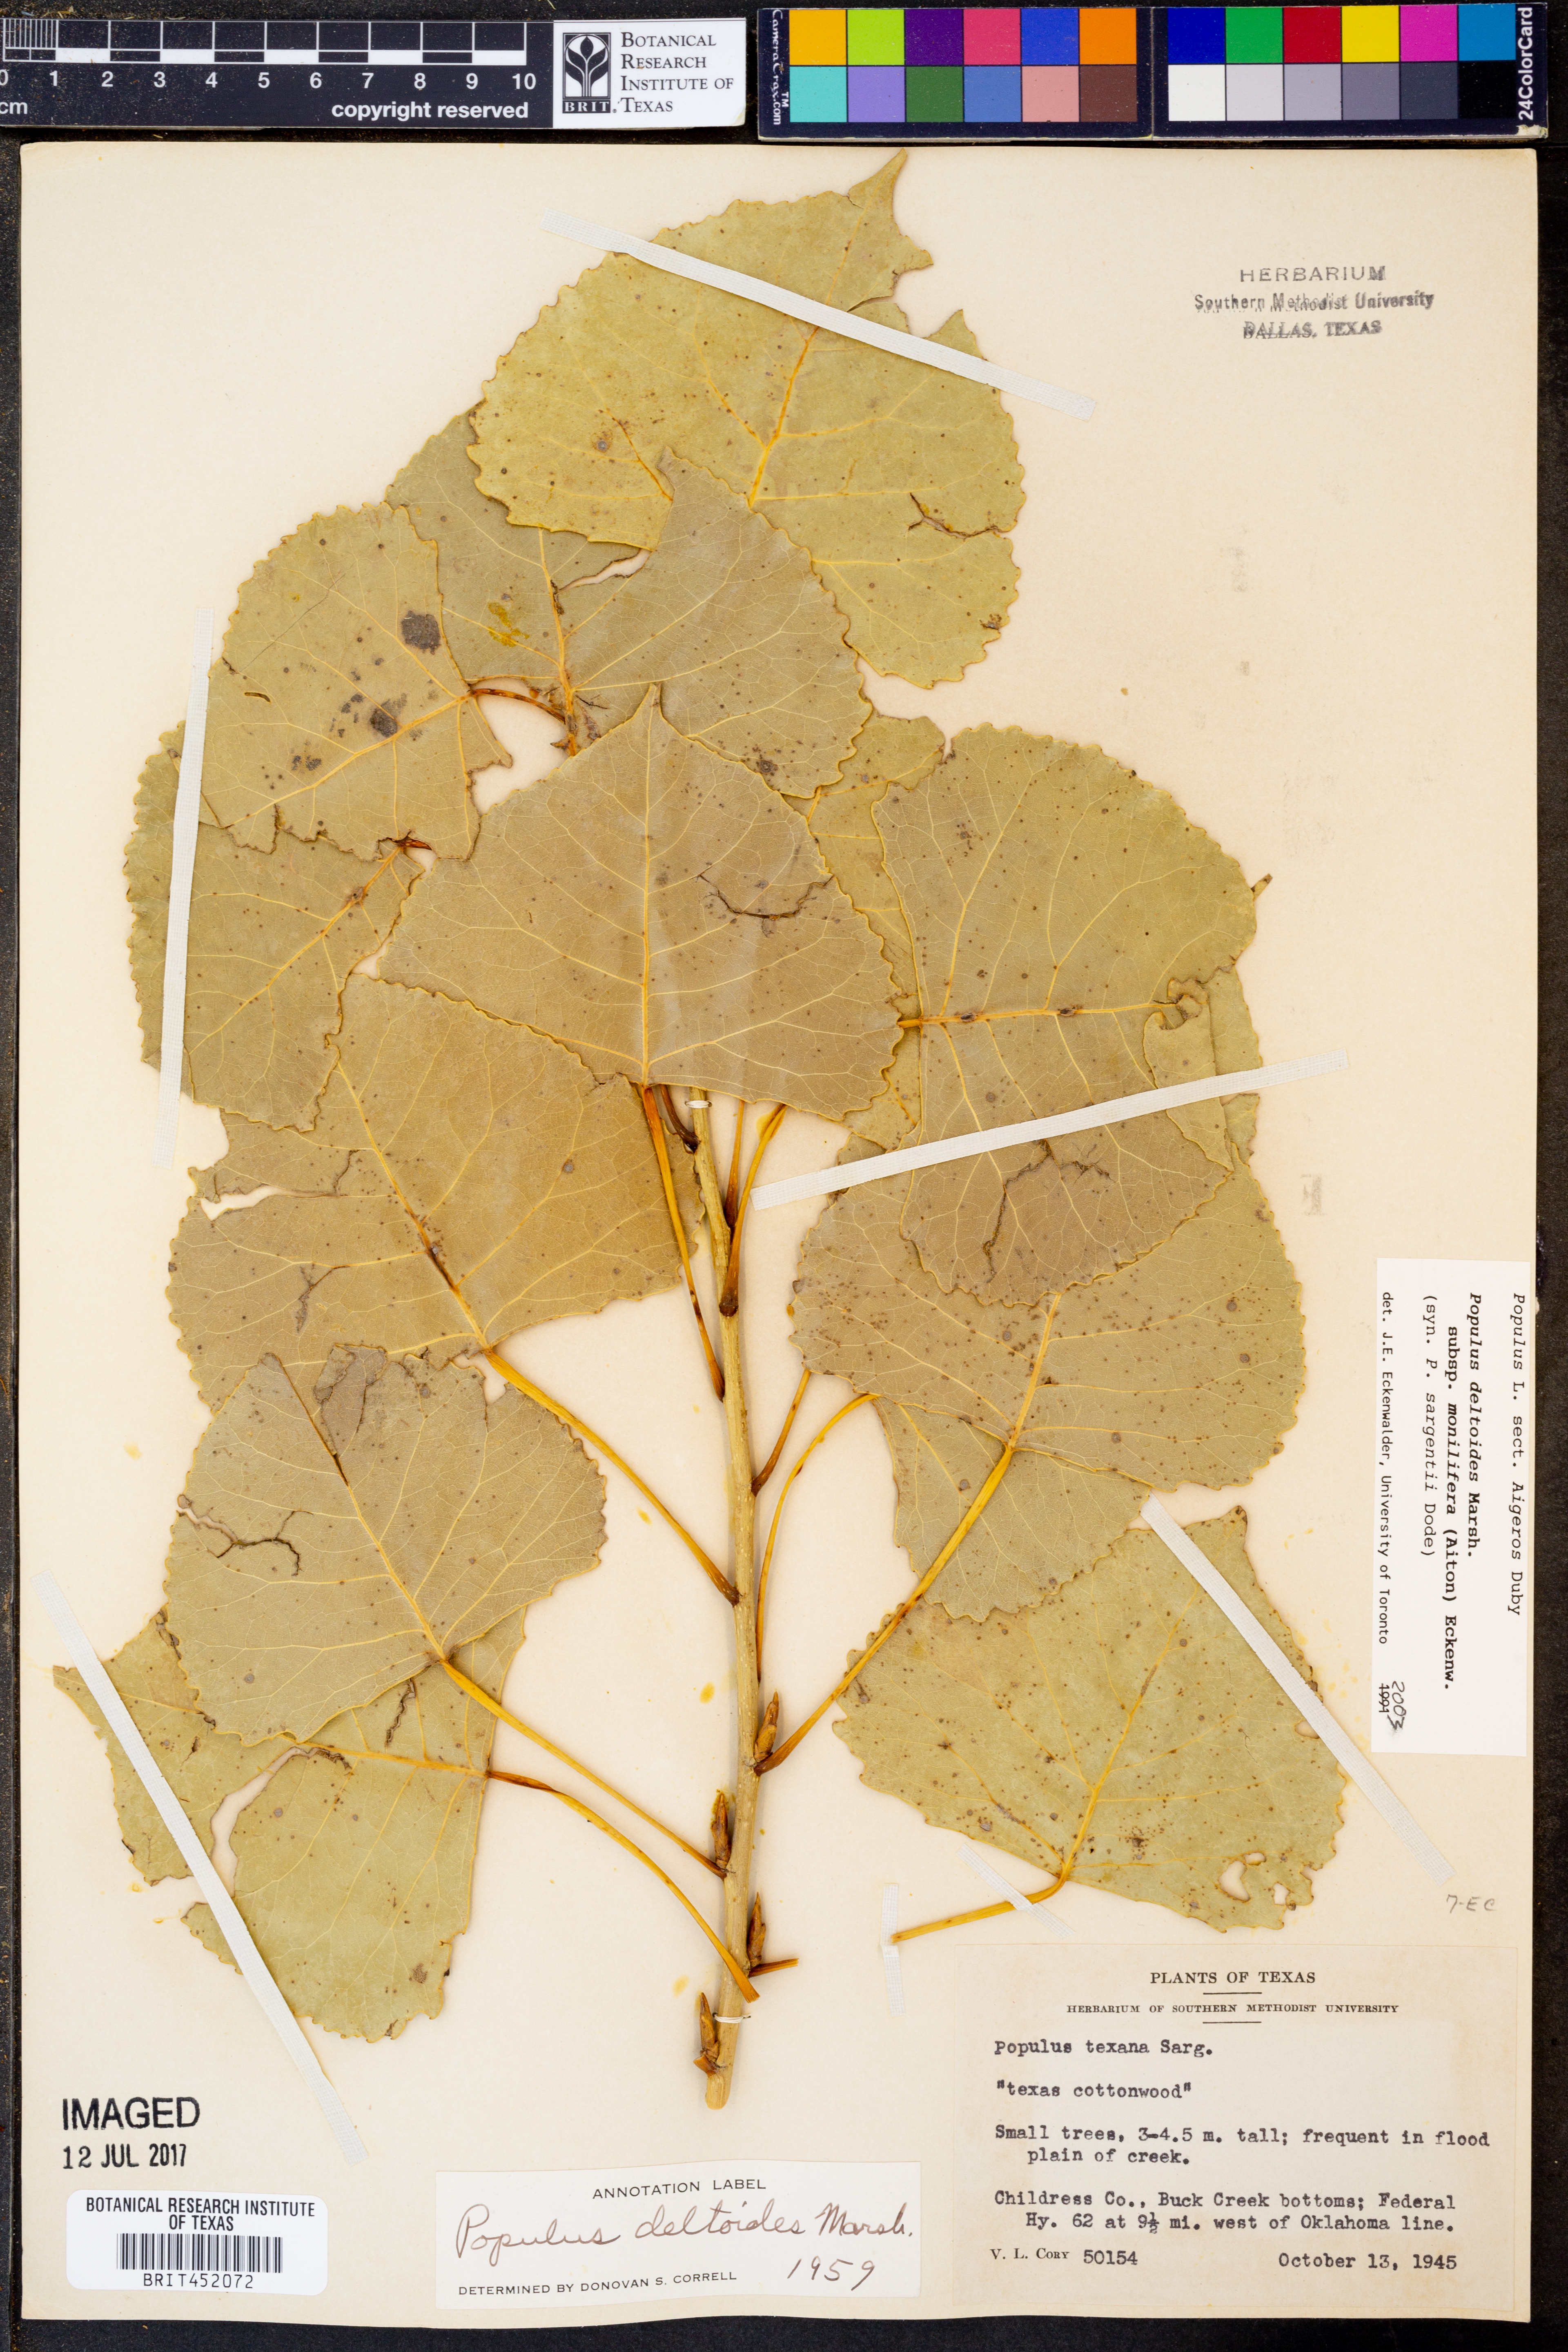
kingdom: Plantae
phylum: Tracheophyta
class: Magnoliopsida
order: Malpighiales
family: Salicaceae
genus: Populus
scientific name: Populus deltoides
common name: Eastern cottonwood
